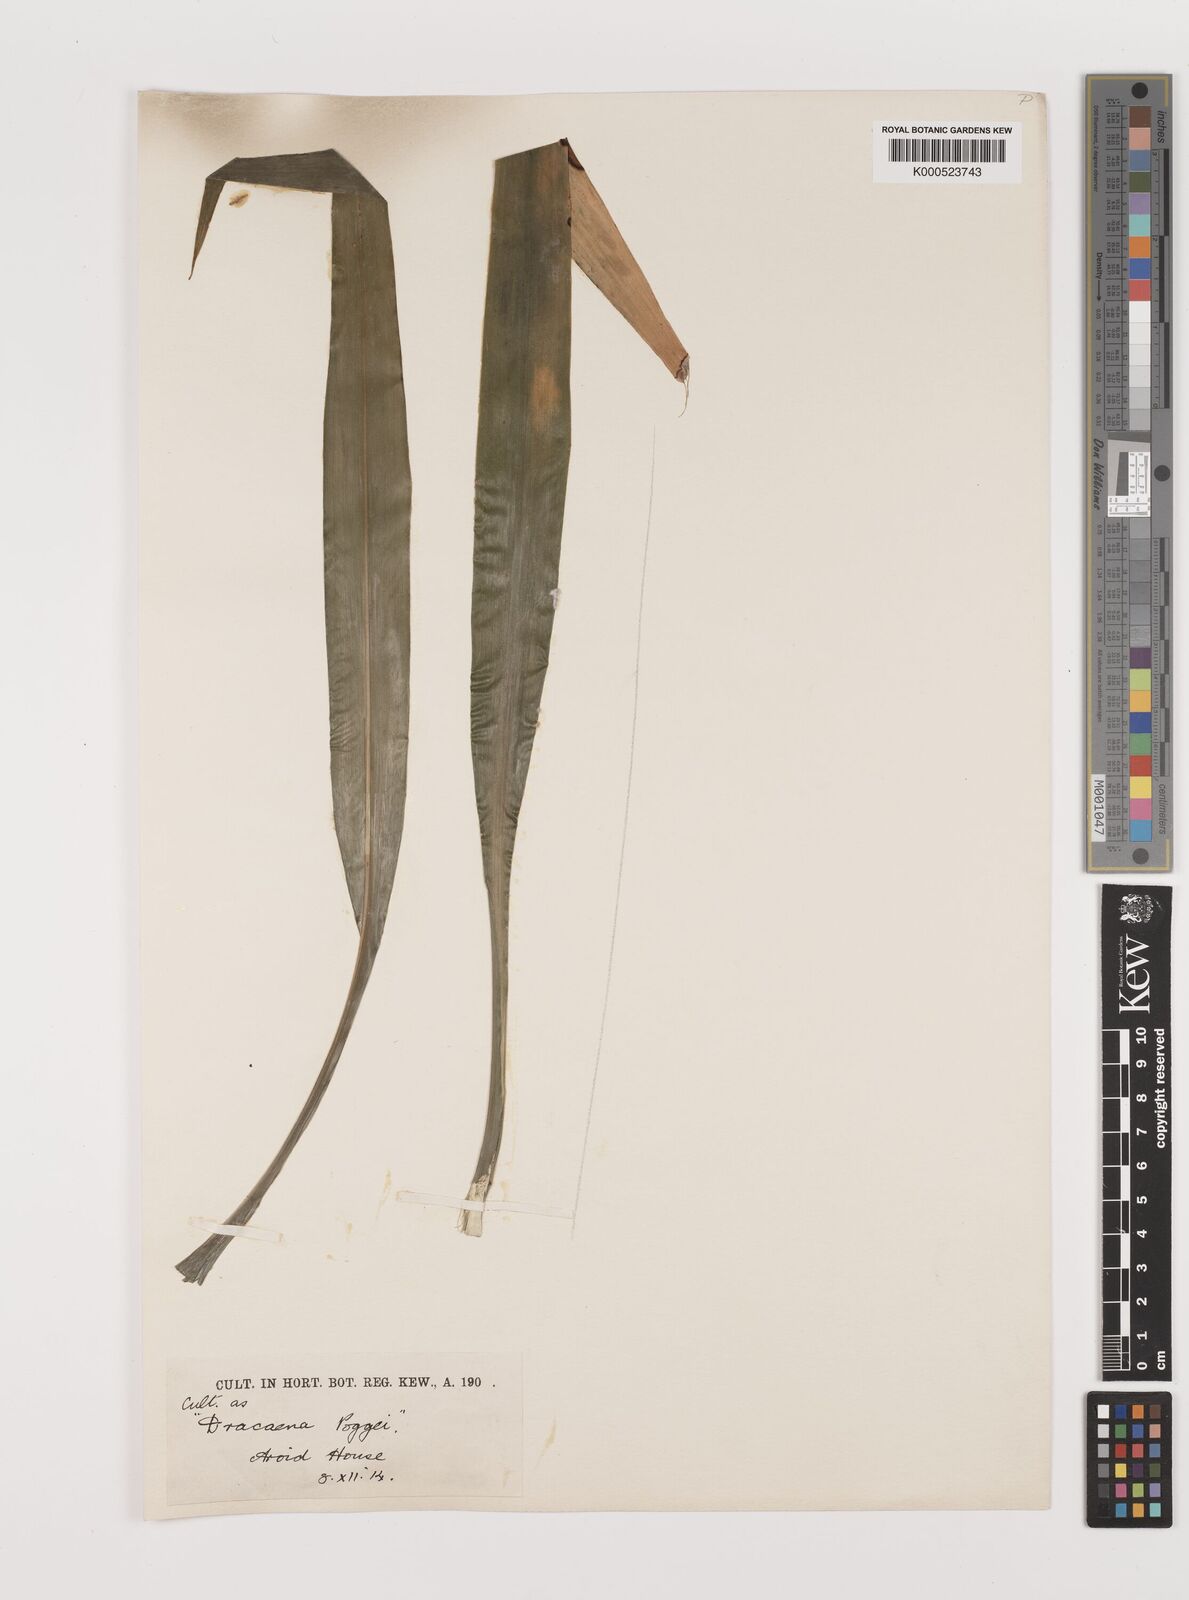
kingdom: Plantae
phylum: Tracheophyta
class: Liliopsida
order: Asparagales
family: Asparagaceae
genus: Dracaena
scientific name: Dracaena sanderiana
